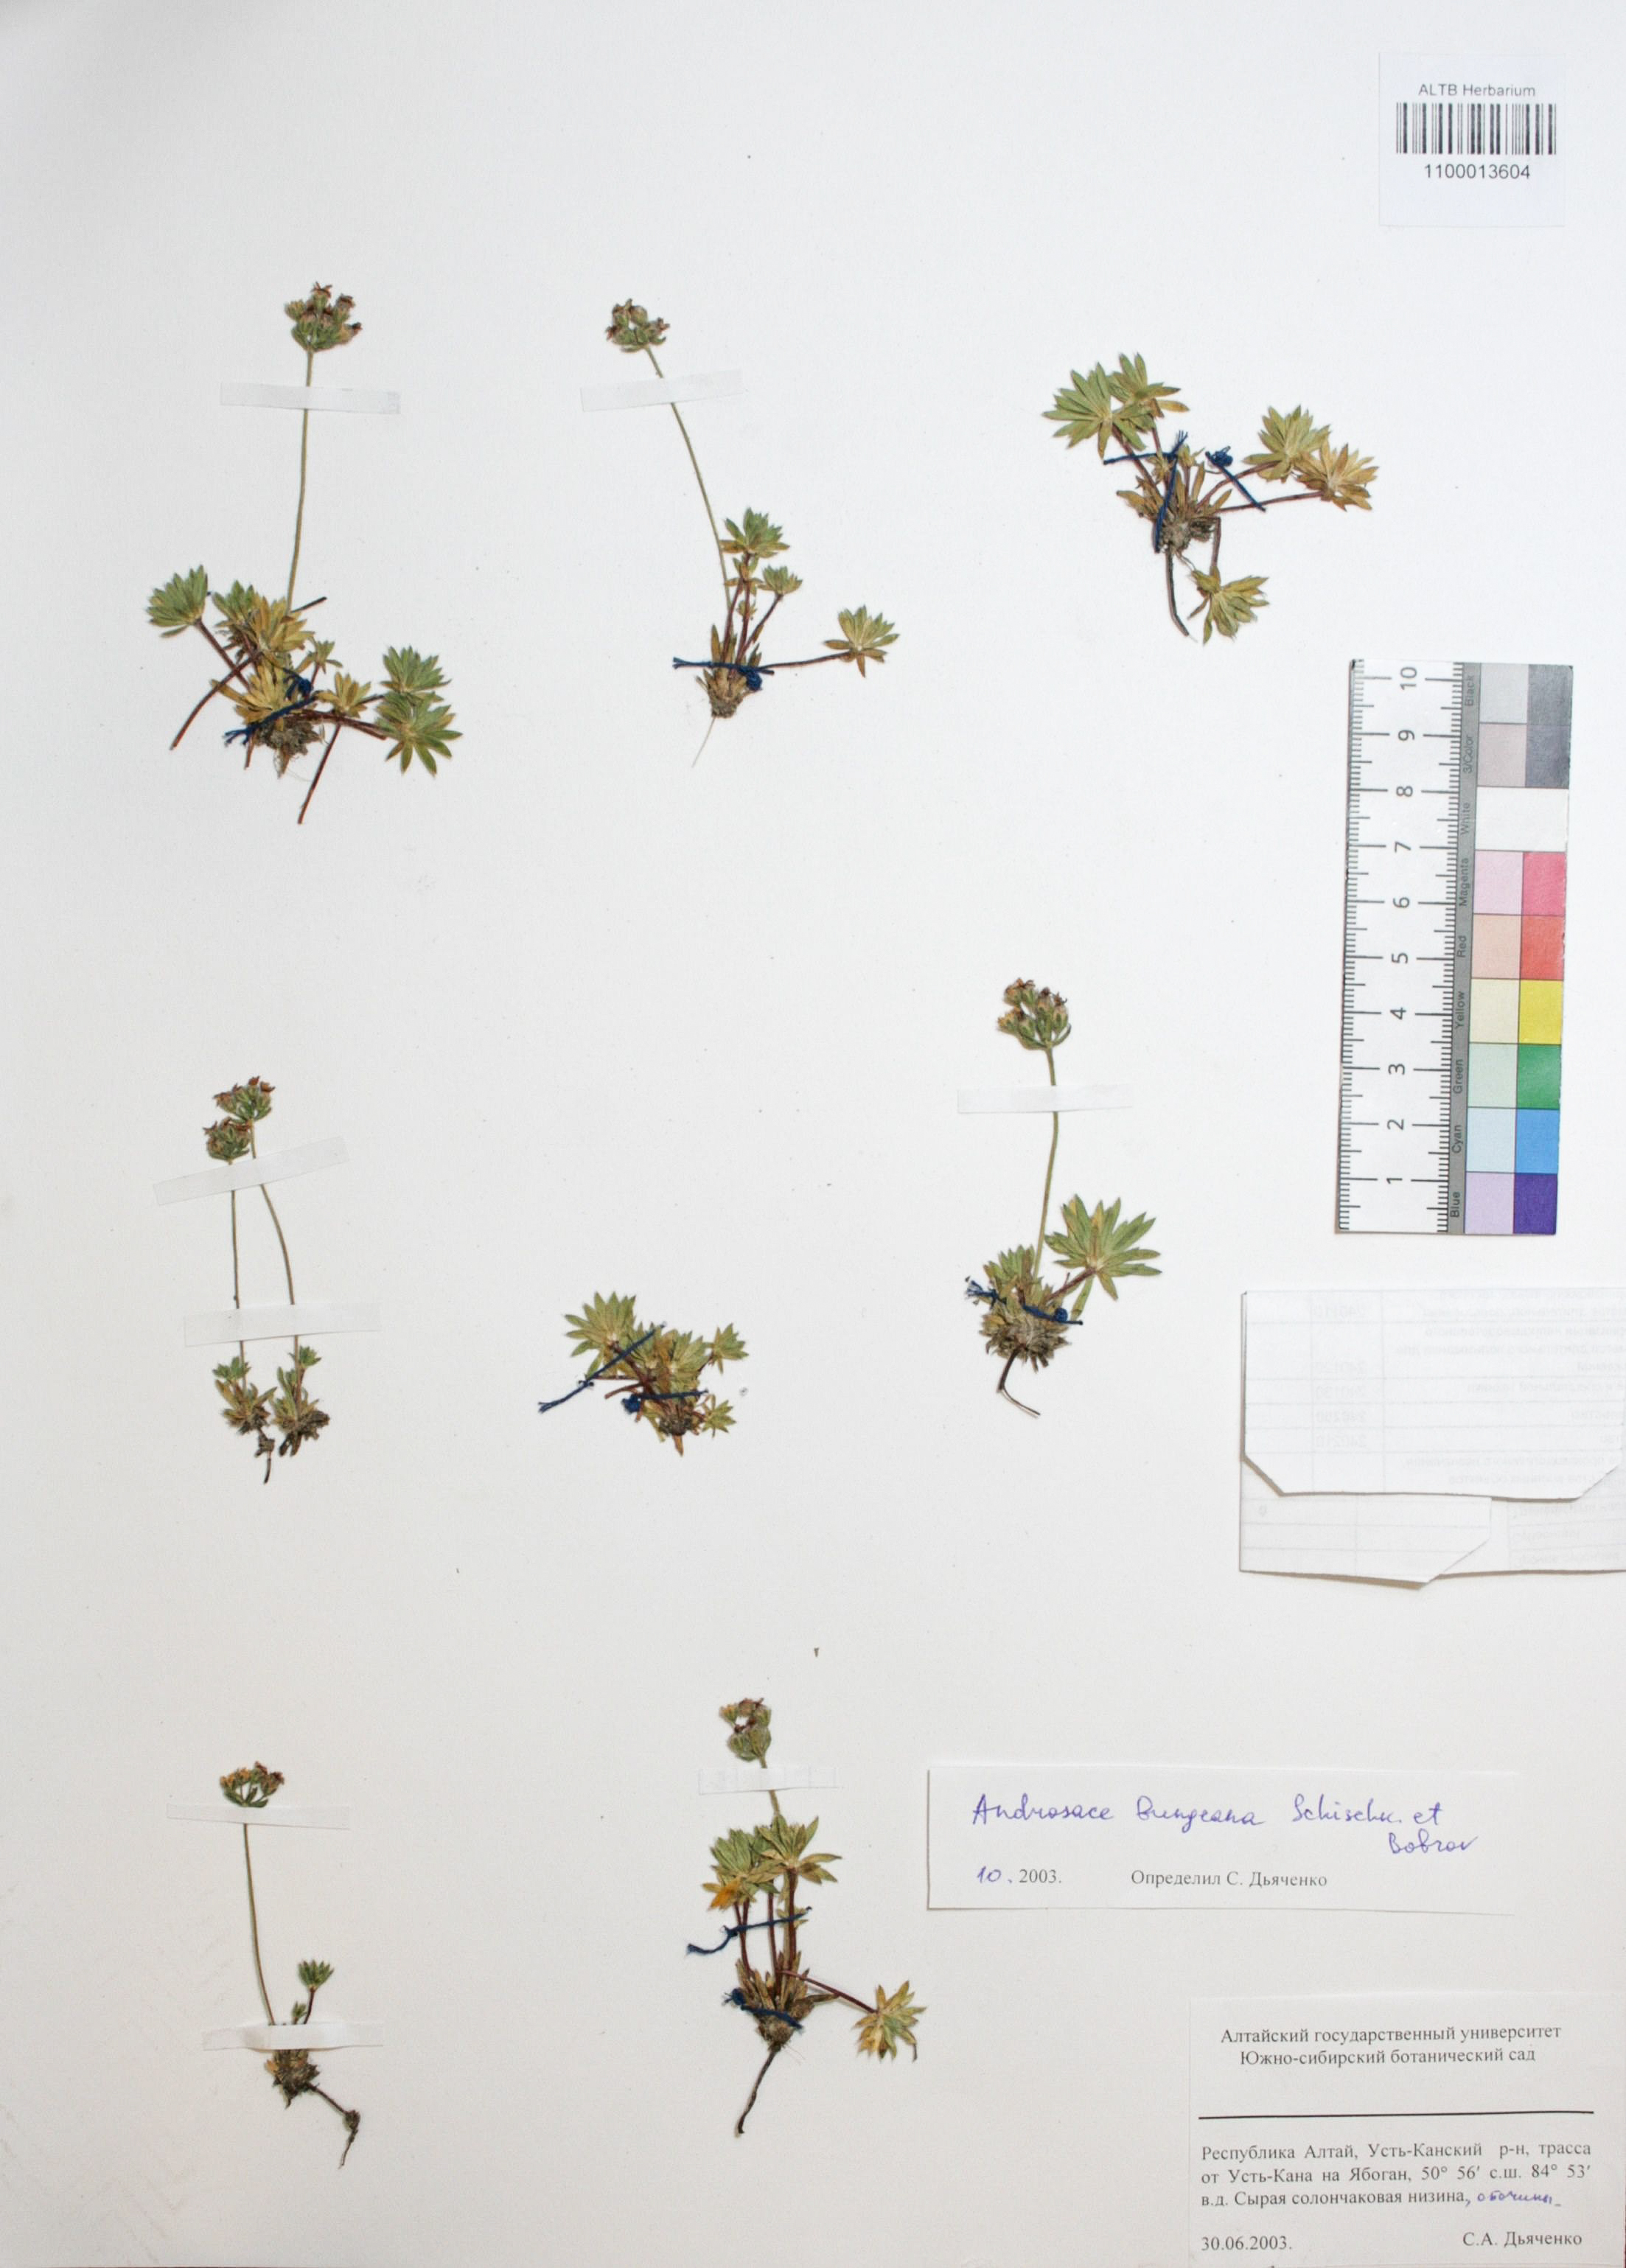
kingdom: Plantae
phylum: Tracheophyta
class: Magnoliopsida
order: Ericales
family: Primulaceae
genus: Androsace
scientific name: Androsace bungeana
